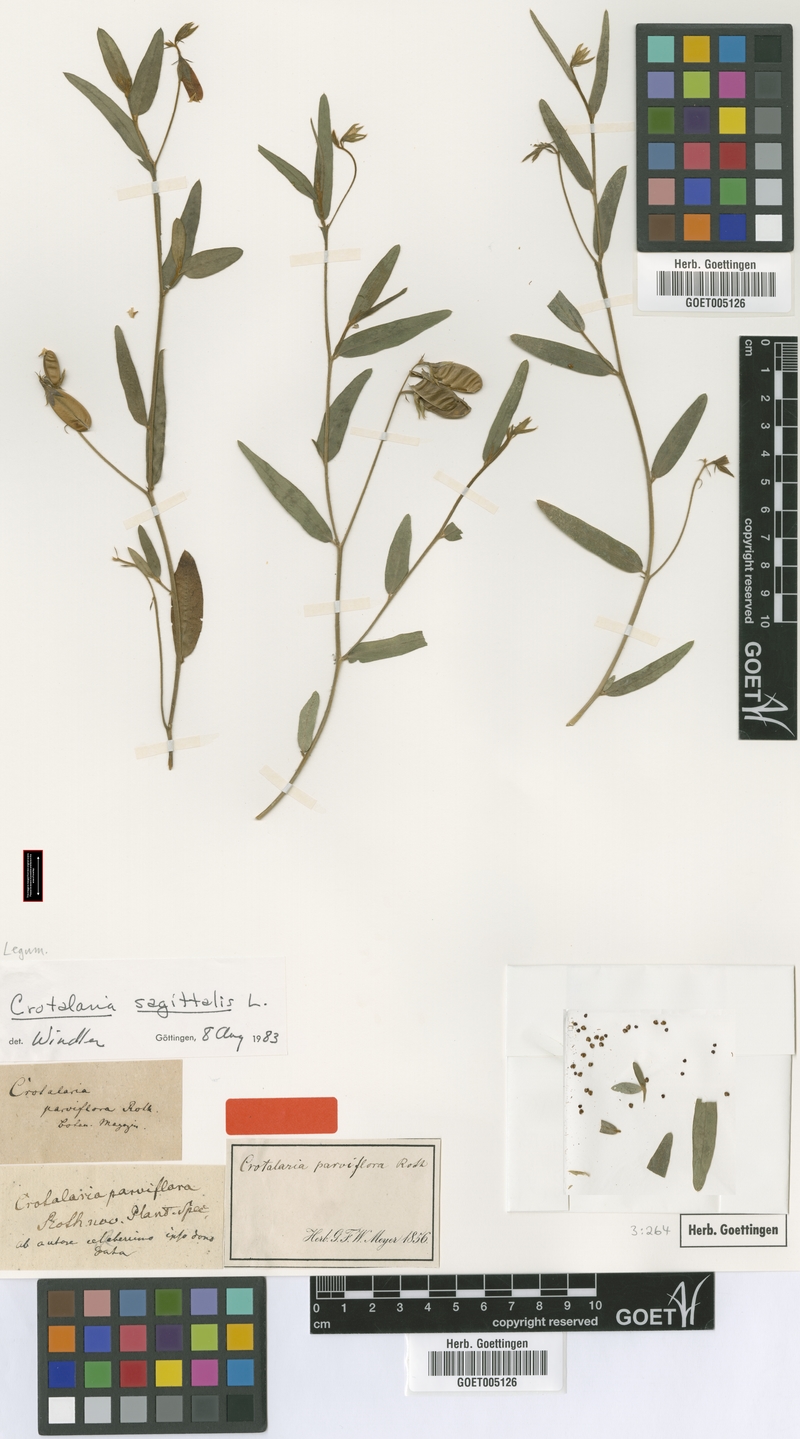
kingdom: Plantae
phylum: Tracheophyta
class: Magnoliopsida
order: Fabales
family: Fabaceae
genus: Crotalaria
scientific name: Crotalaria sagittalis
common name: Arrowhead rattlebox
